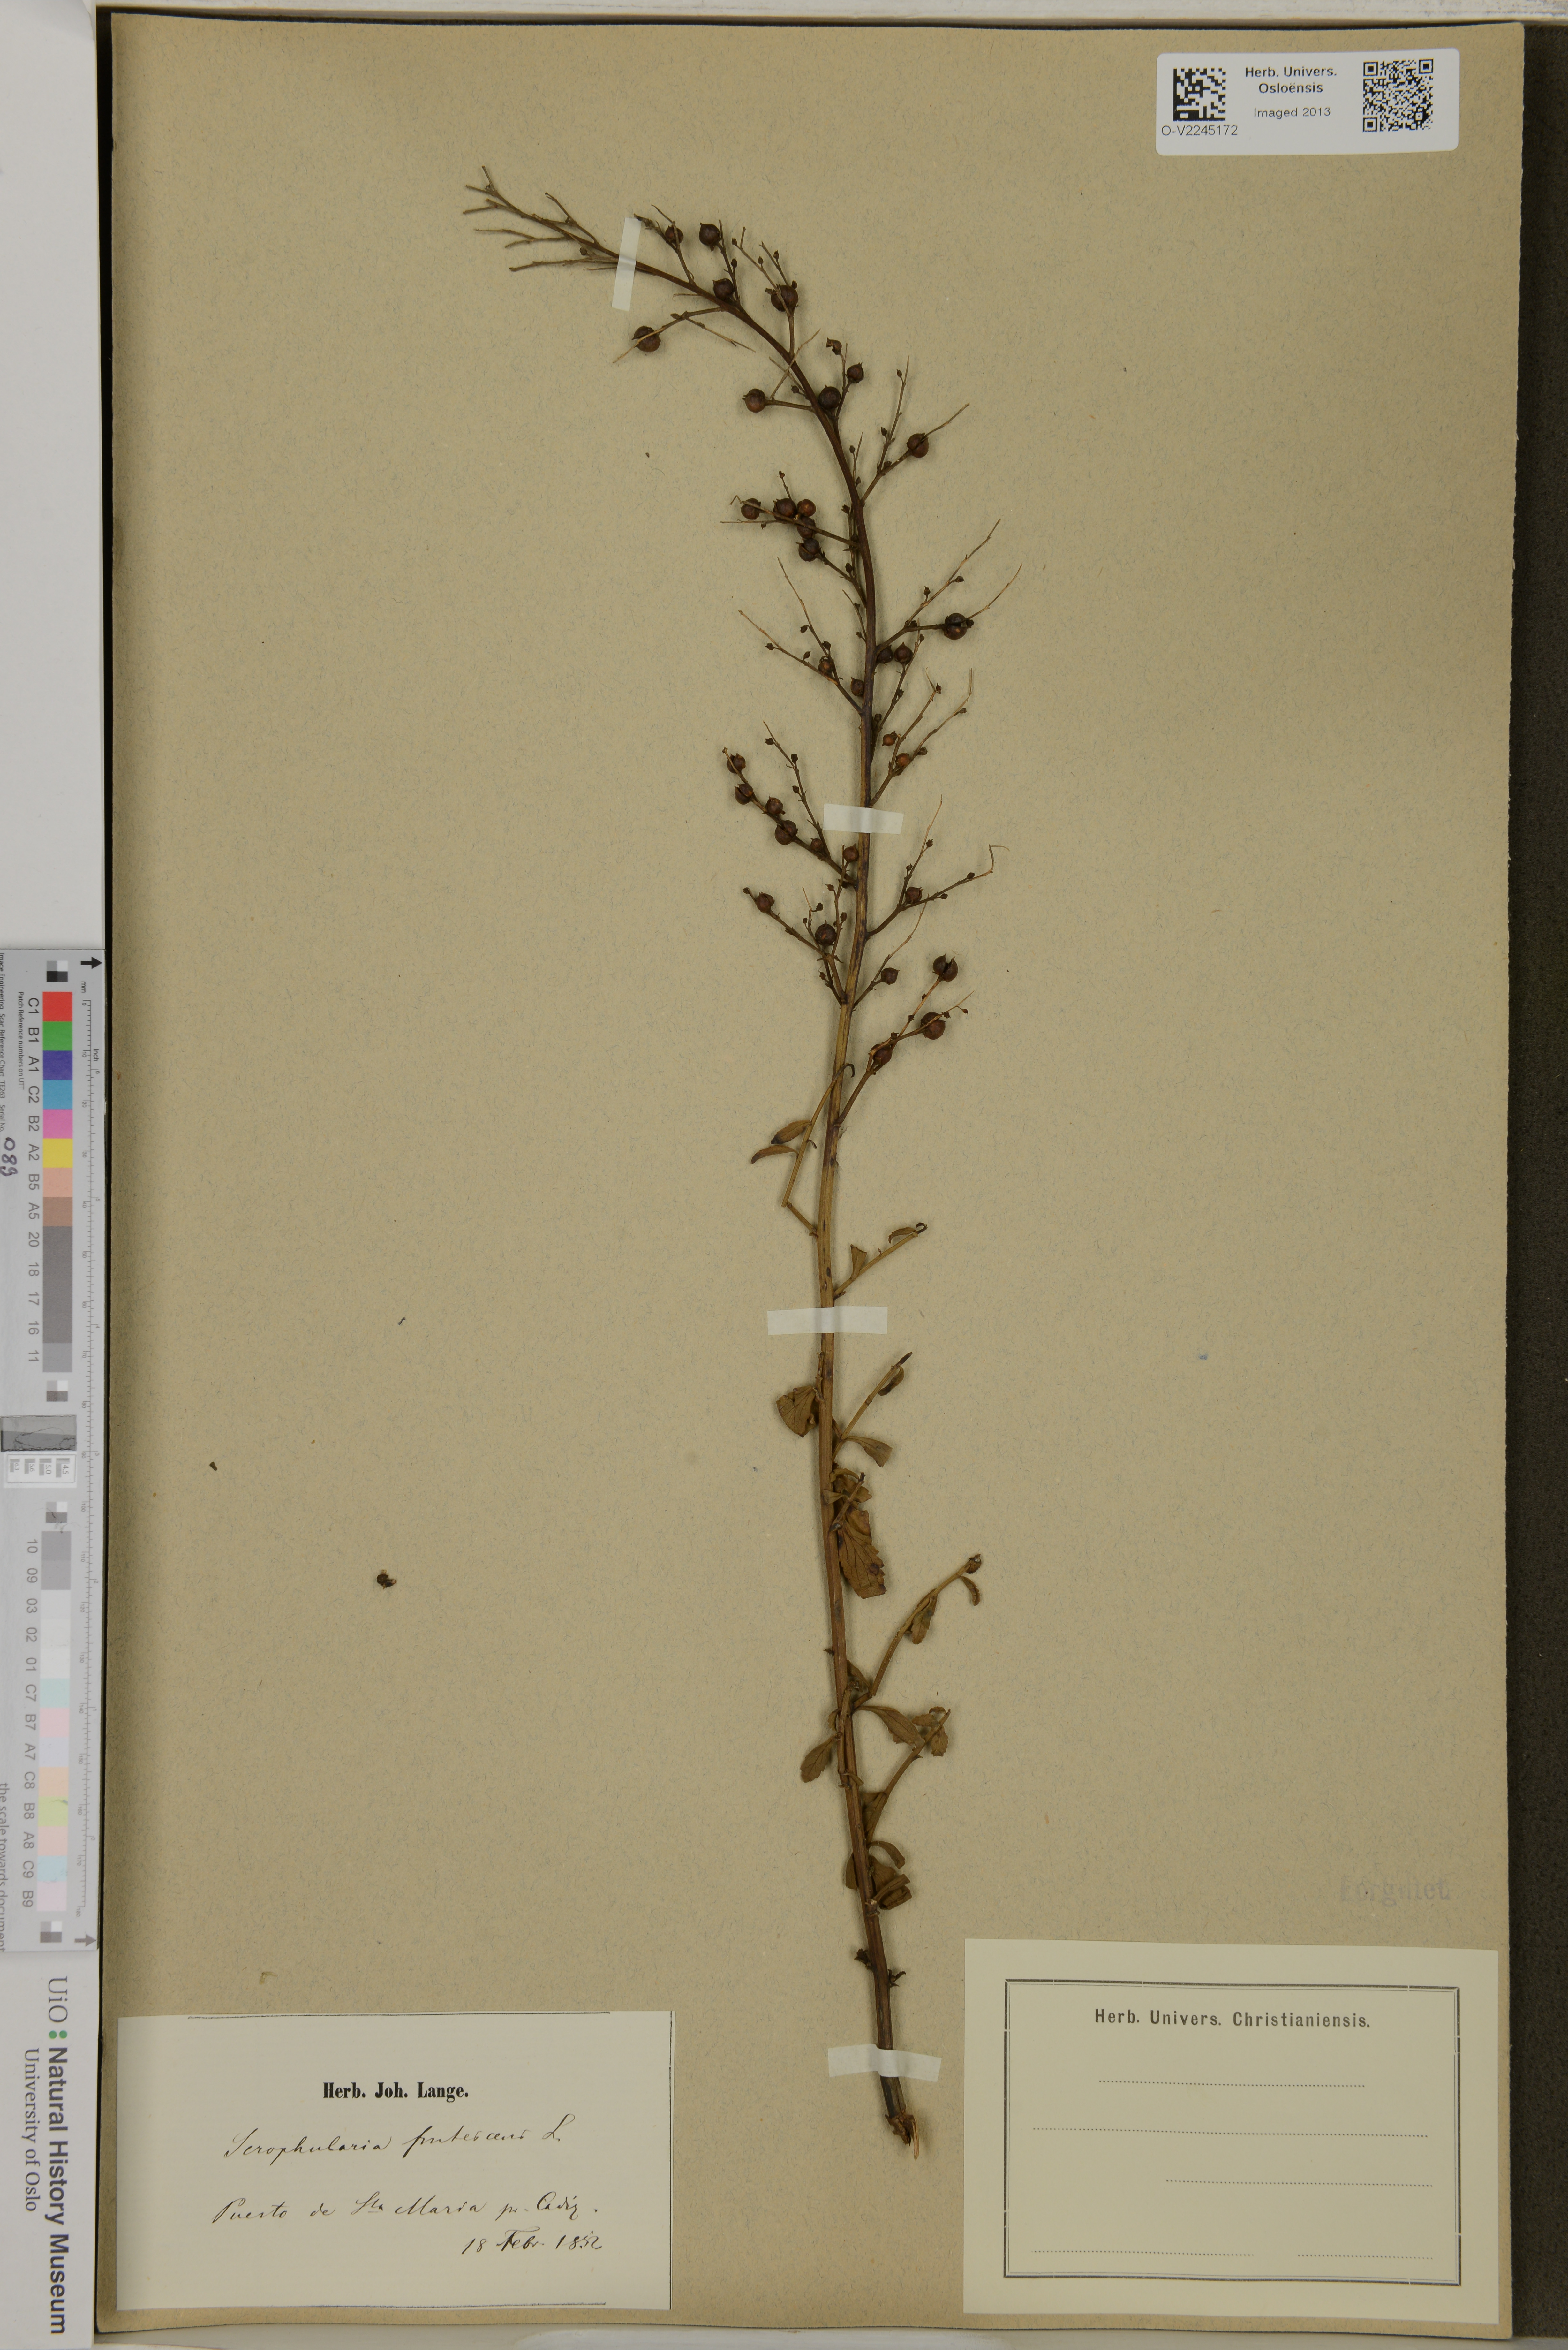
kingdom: Plantae
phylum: Tracheophyta
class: Magnoliopsida
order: Lamiales
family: Scrophulariaceae
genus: Scrophularia
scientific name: Scrophularia frutescens
